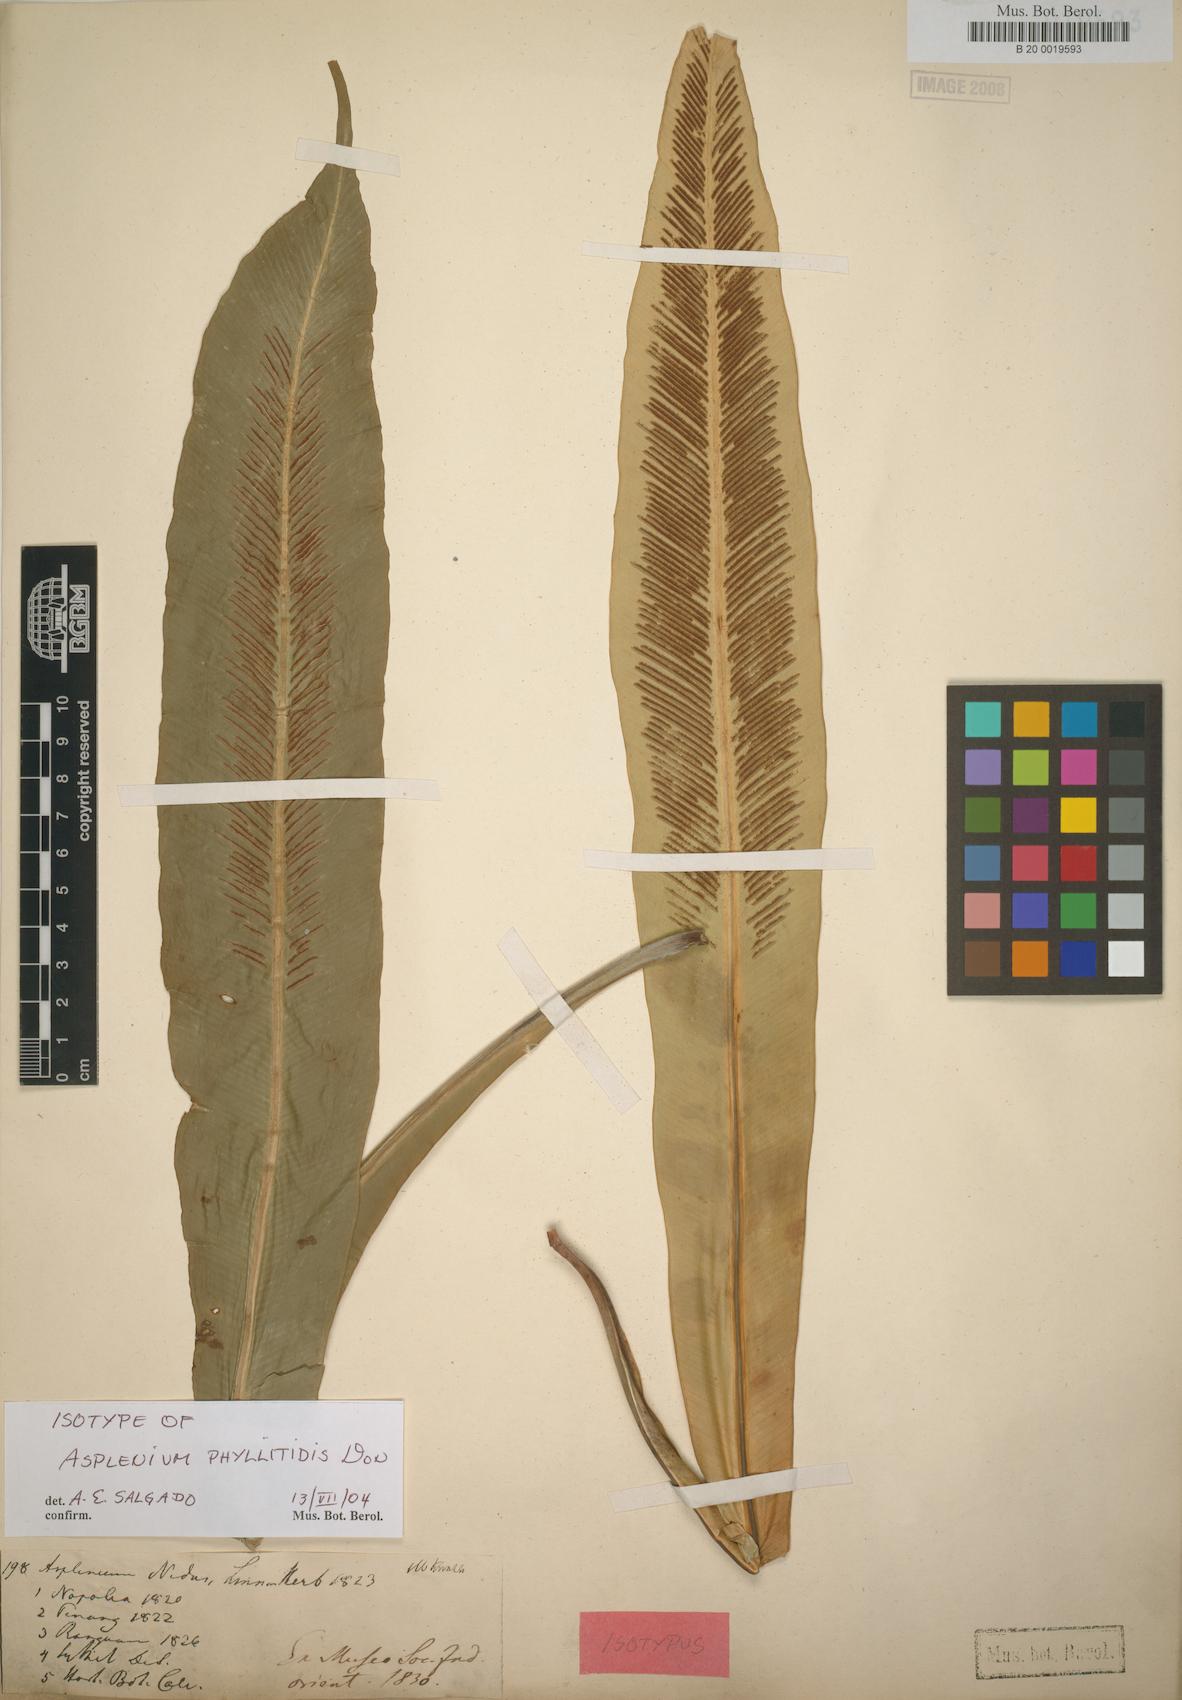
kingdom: Plantae
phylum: Tracheophyta
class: Polypodiopsida
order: Polypodiales
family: Aspleniaceae
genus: Asplenium
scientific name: Asplenium phyllitidis
